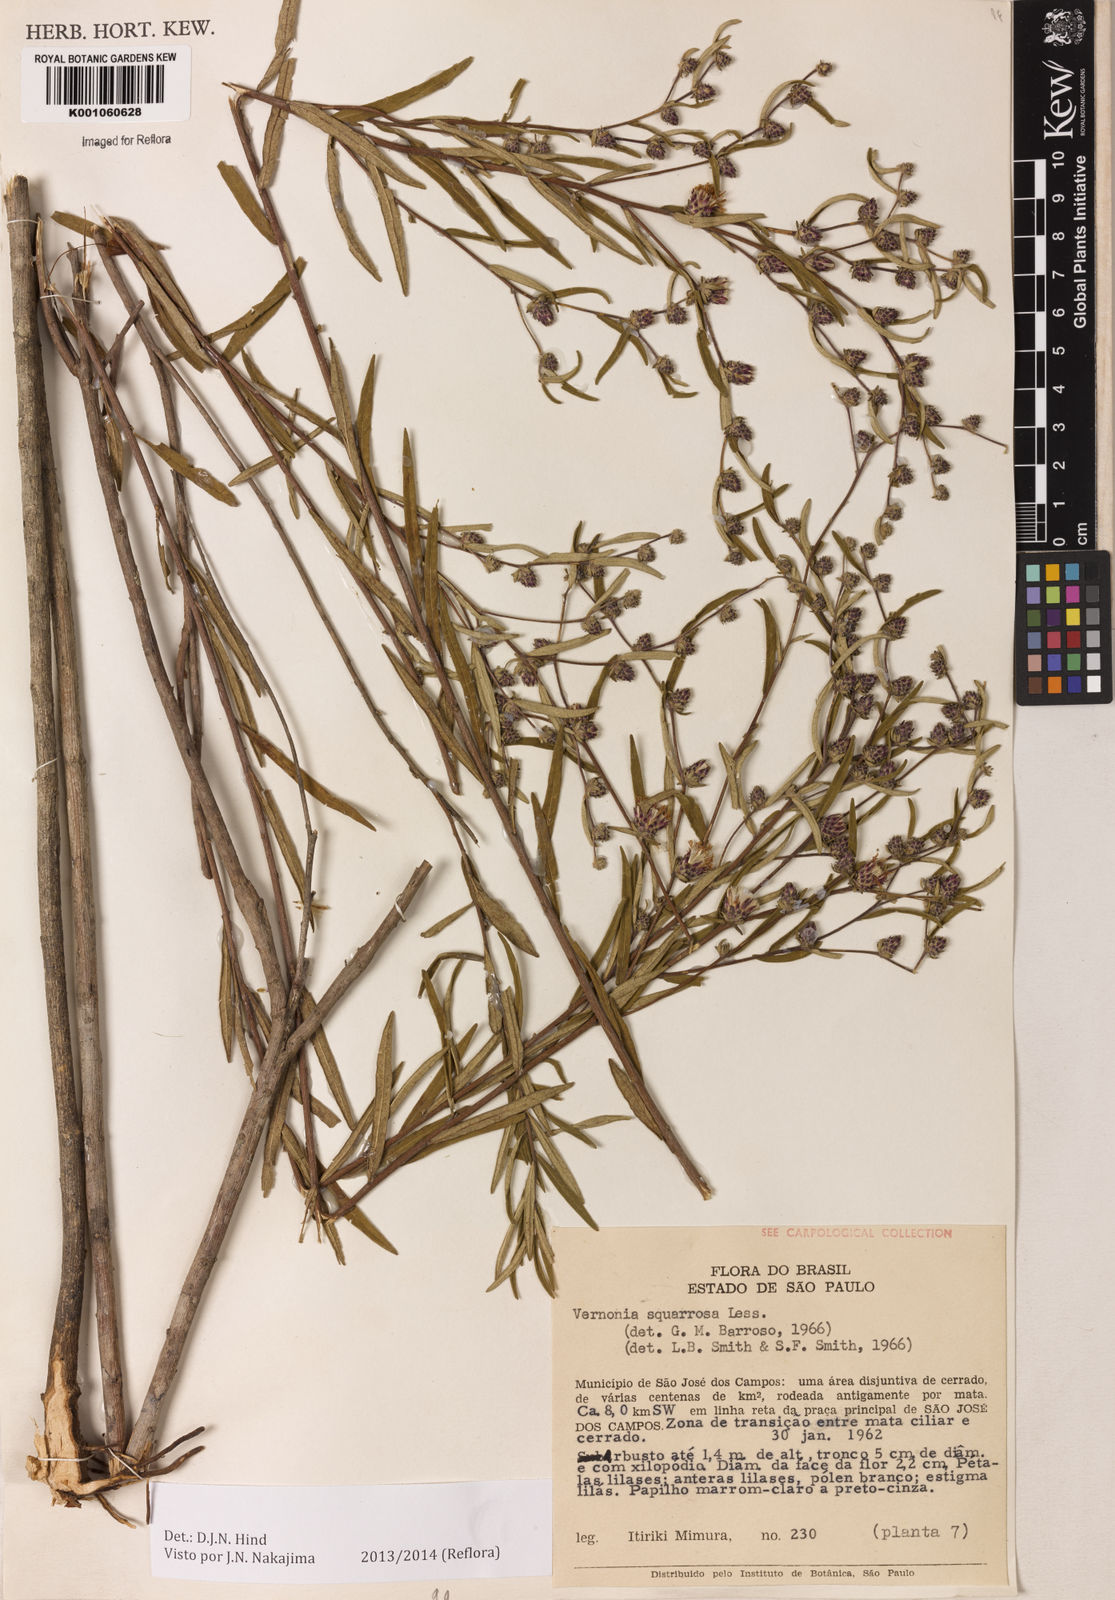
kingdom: Plantae
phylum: Tracheophyta
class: Magnoliopsida
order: Asterales
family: Asteraceae
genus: Lessingianthus
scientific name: Lessingianthus plantaginoides
